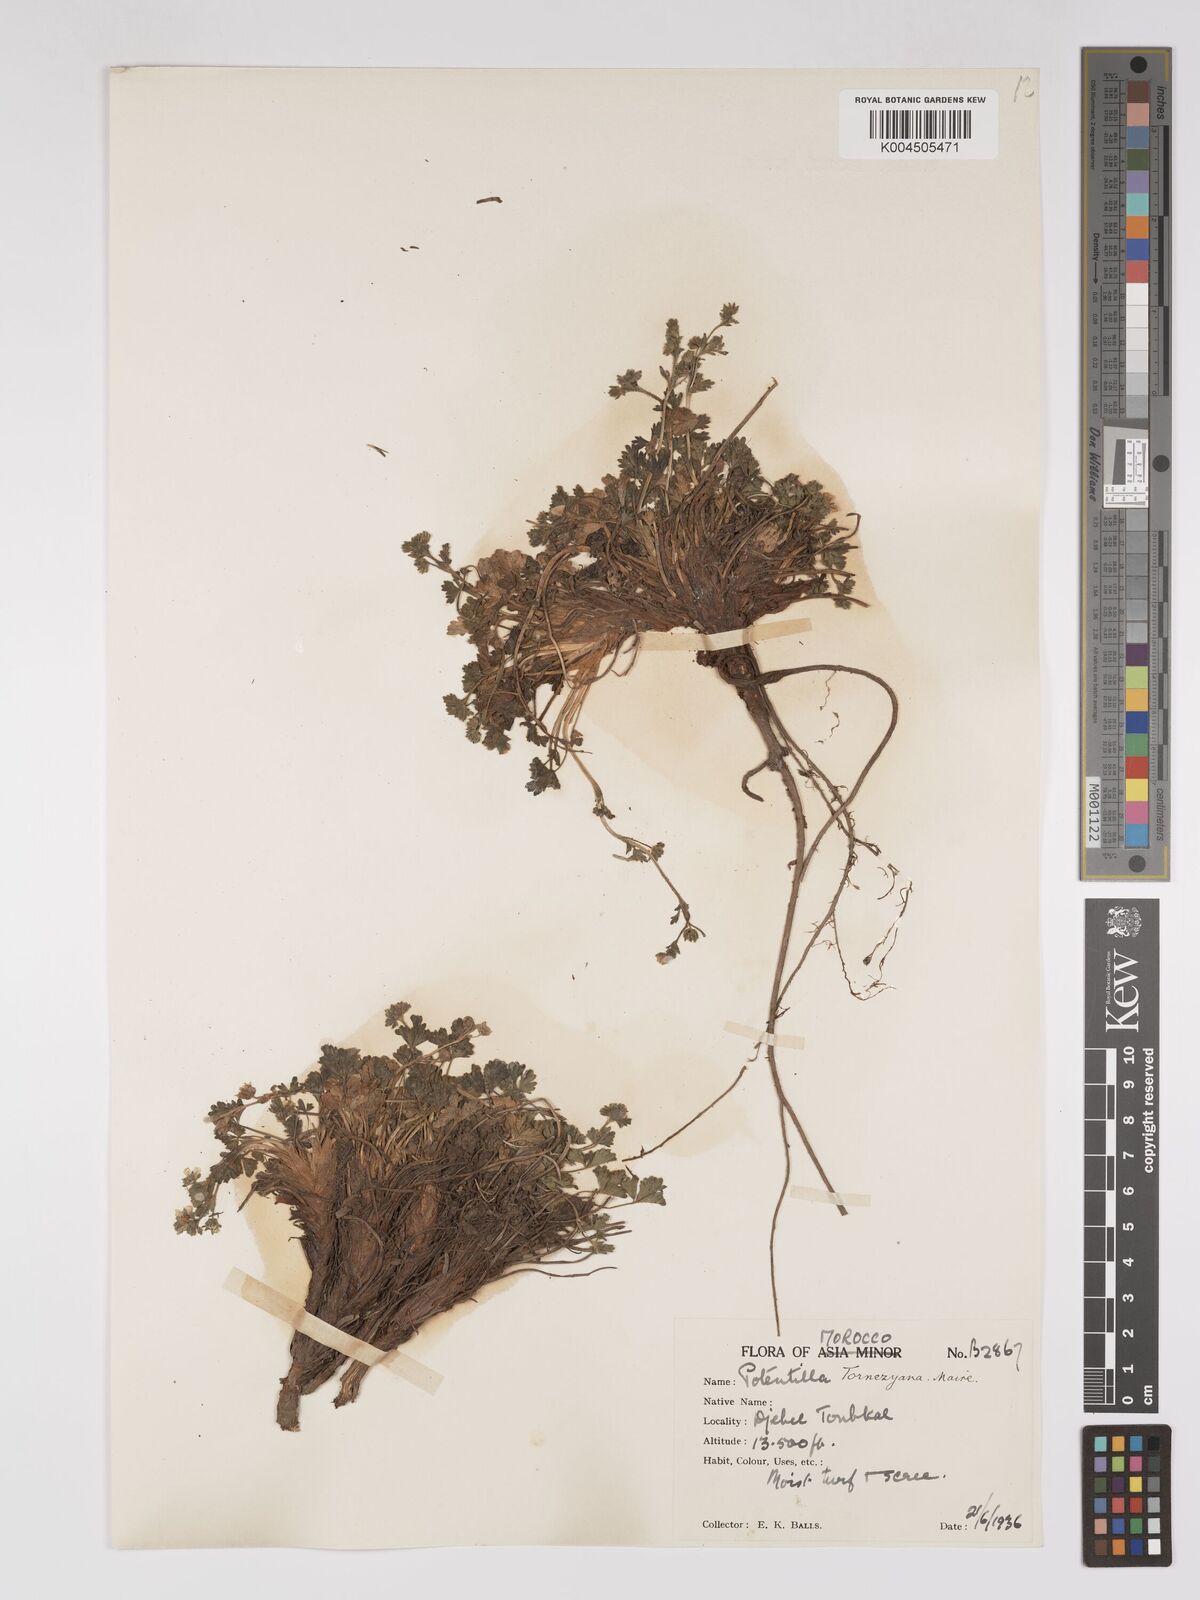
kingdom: Plantae
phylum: Tracheophyta
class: Magnoliopsida
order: Rosales
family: Rosaceae
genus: Potentilla
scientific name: Potentilla tornezyana
